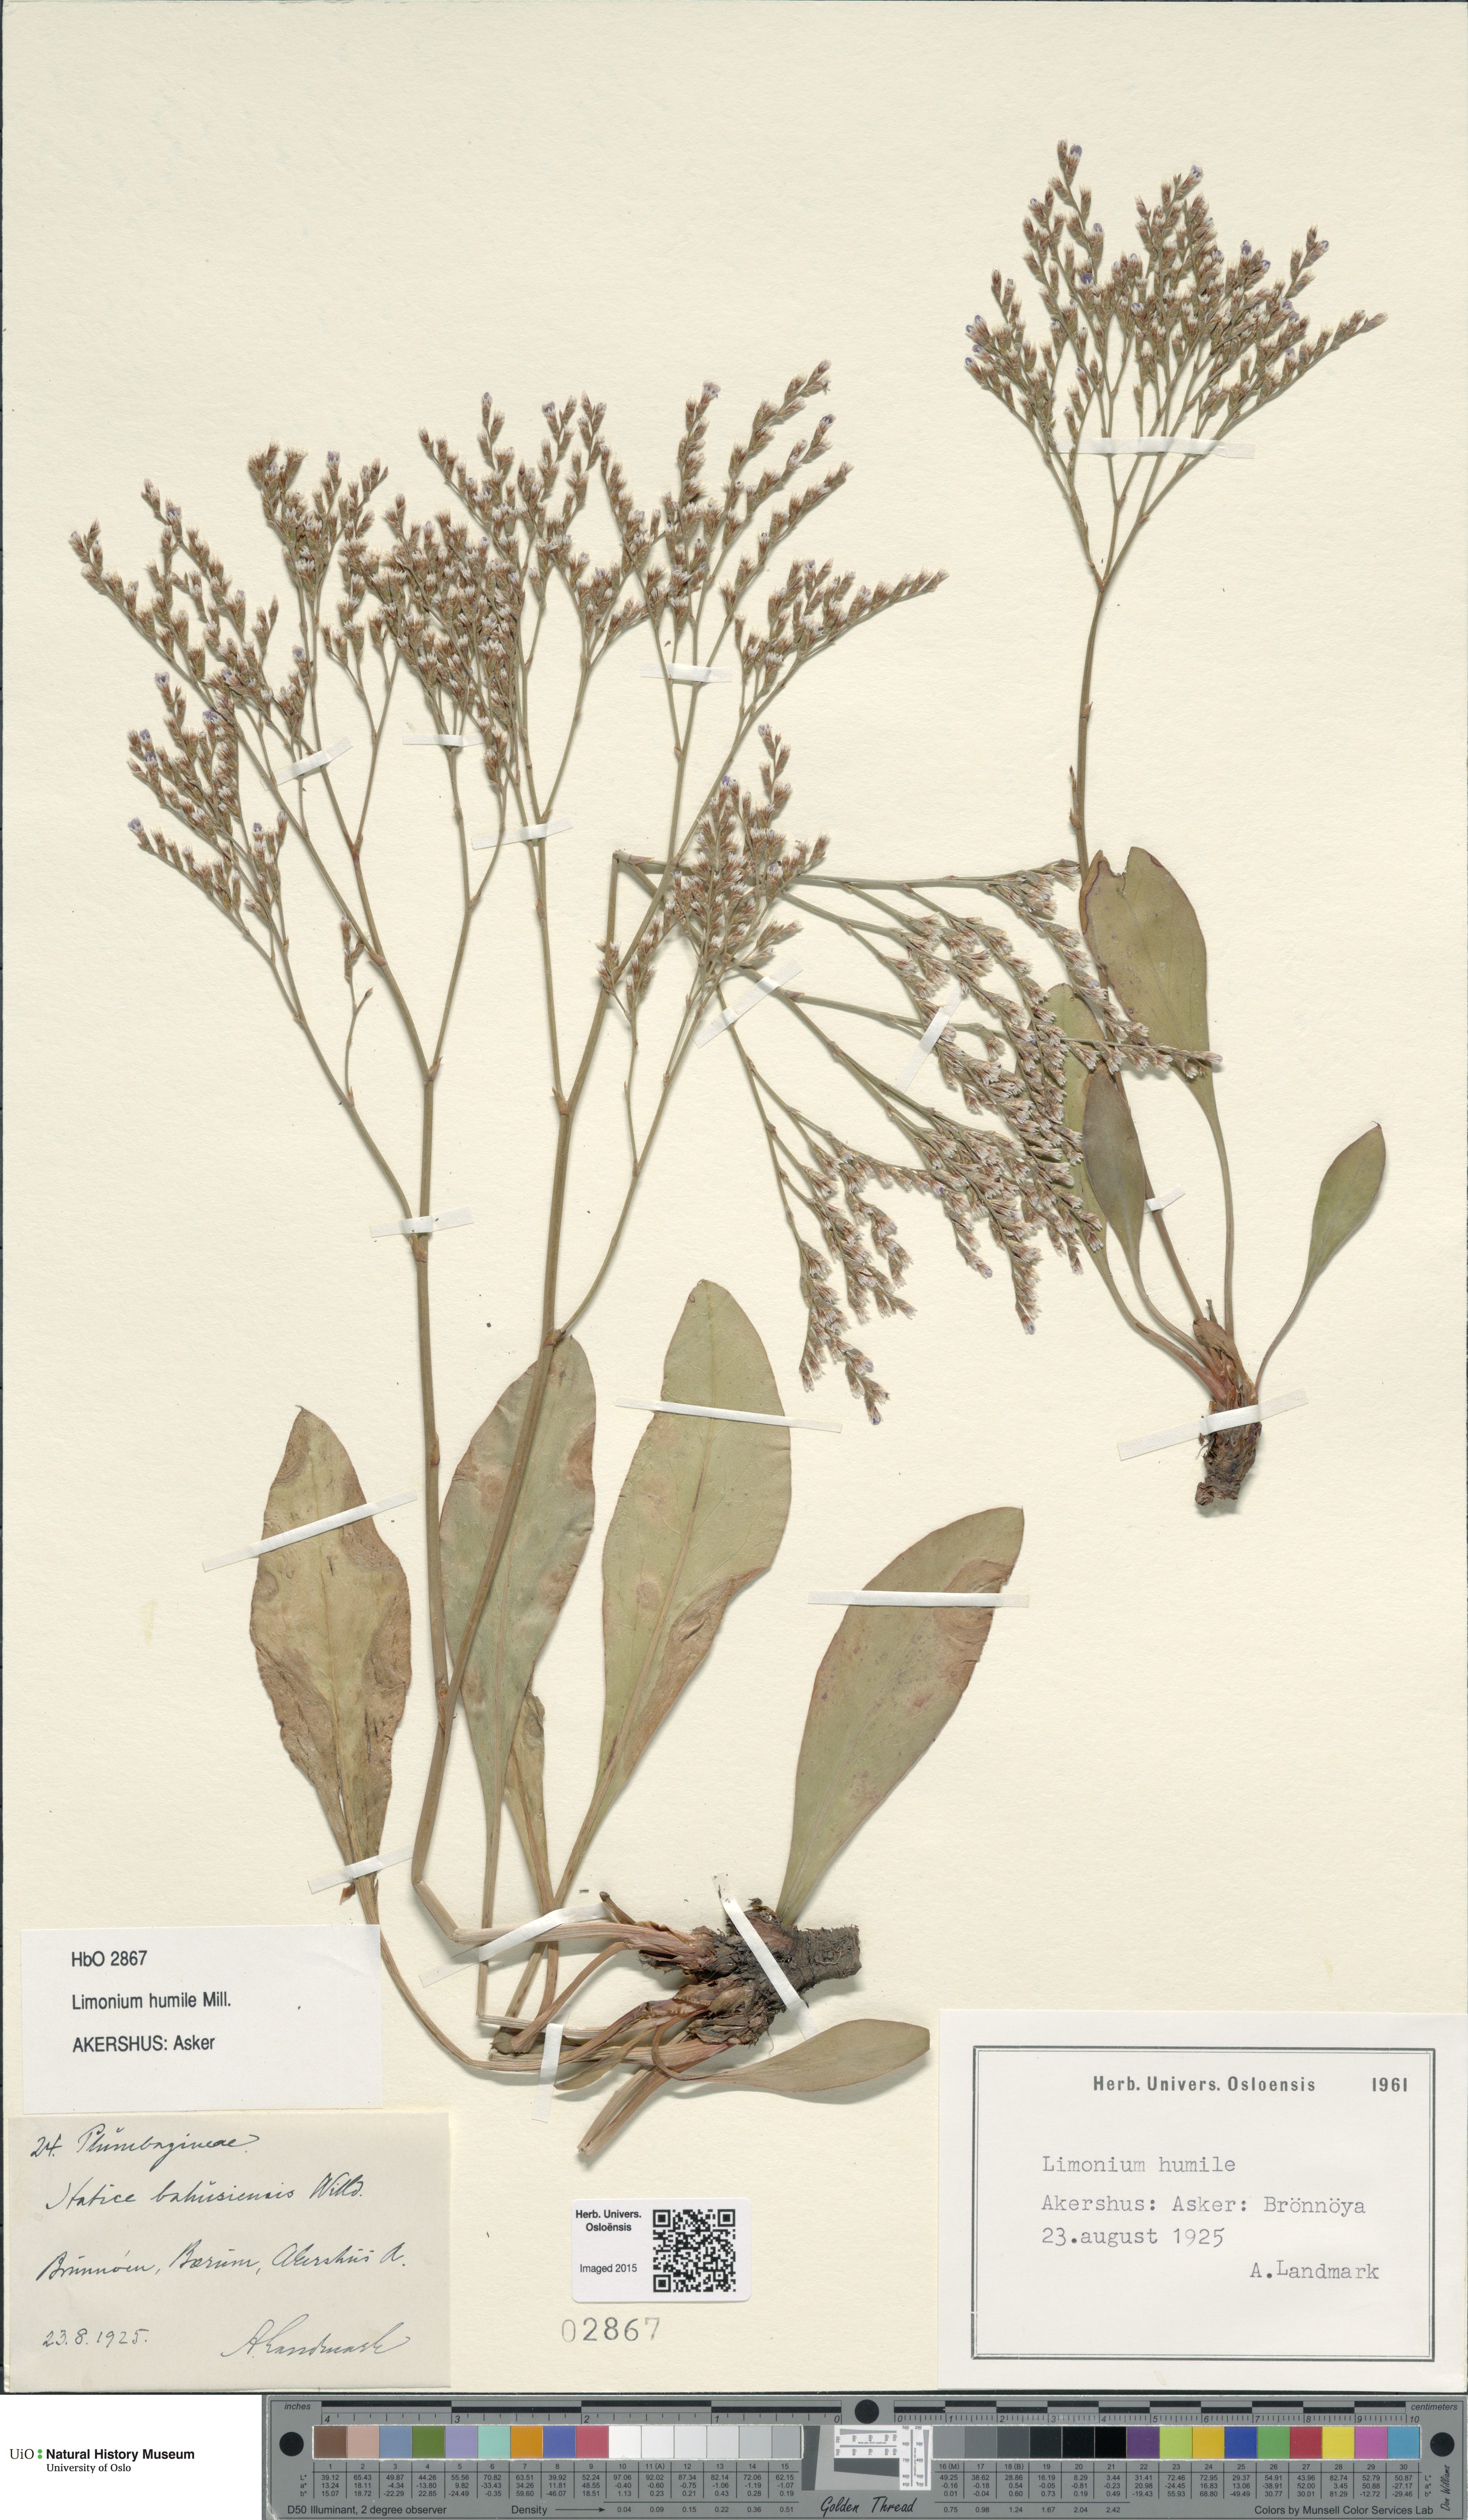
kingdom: Plantae
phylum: Tracheophyta
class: Magnoliopsida
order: Caryophyllales
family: Plumbaginaceae
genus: Limonium
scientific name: Limonium humile
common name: Lax-flowered sea-lavender
